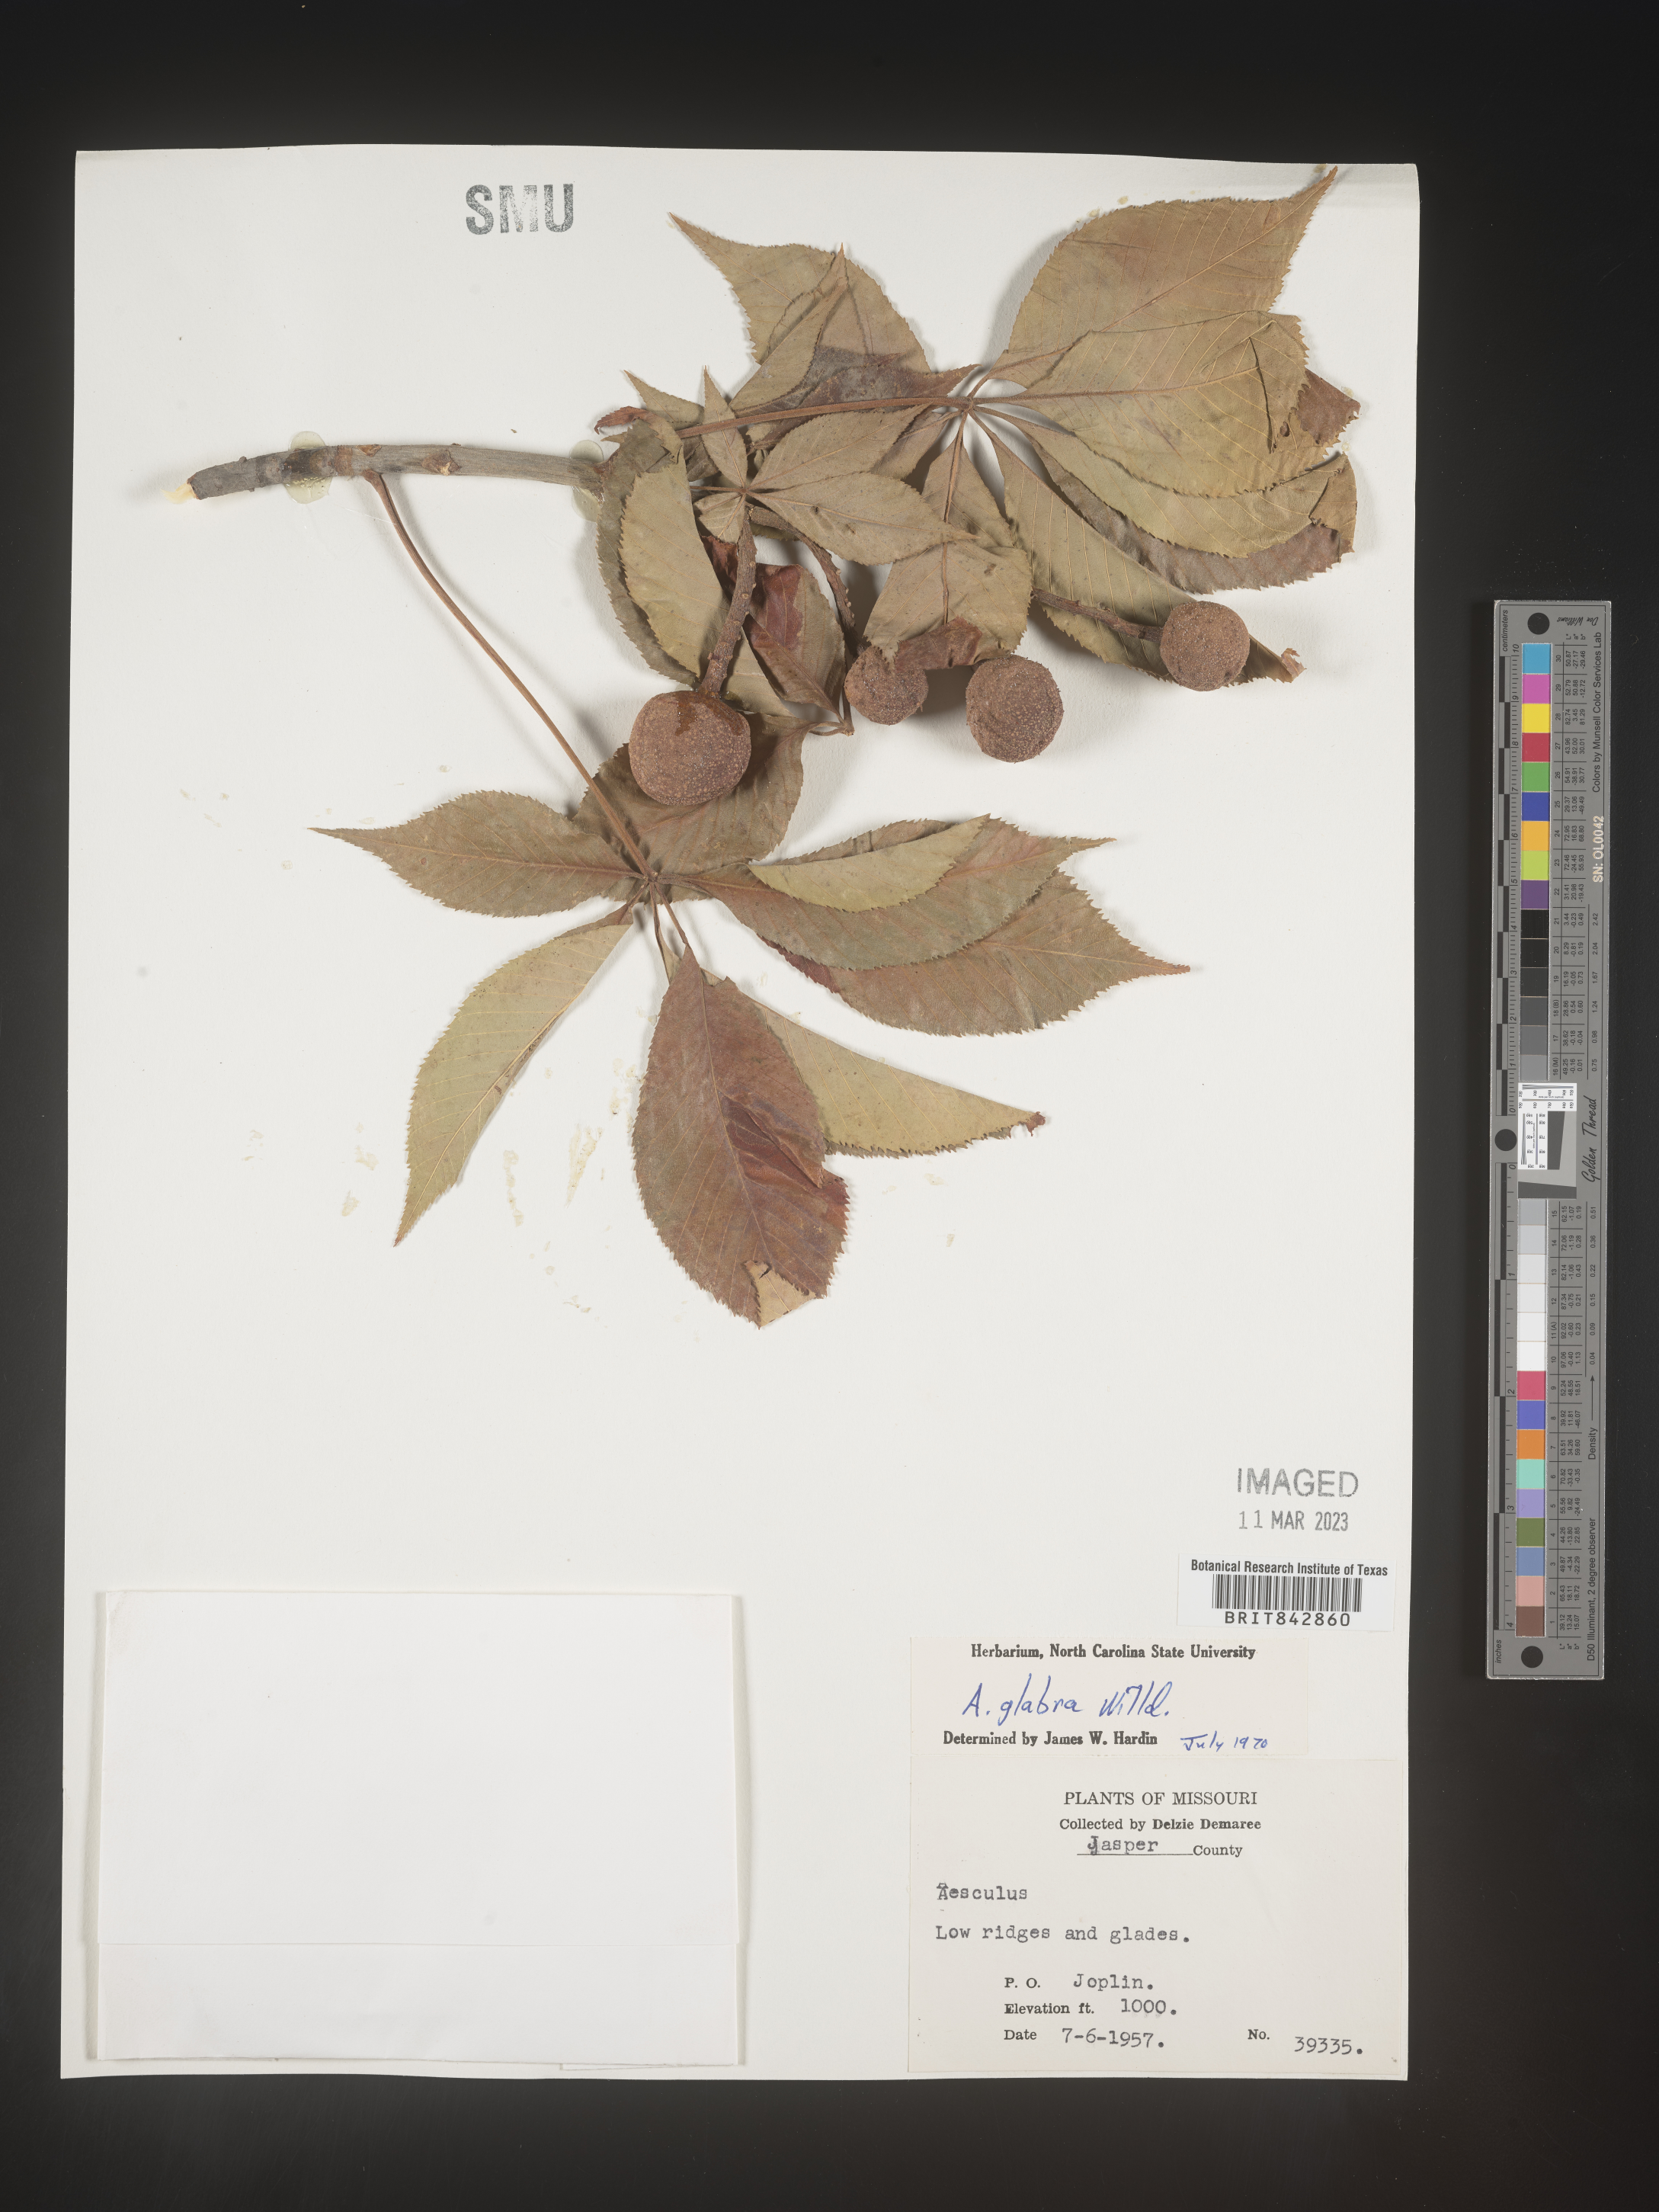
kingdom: Plantae
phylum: Tracheophyta
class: Magnoliopsida
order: Sapindales
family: Sapindaceae
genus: Aesculus
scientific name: Aesculus glabra
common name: Ohio buckeye
